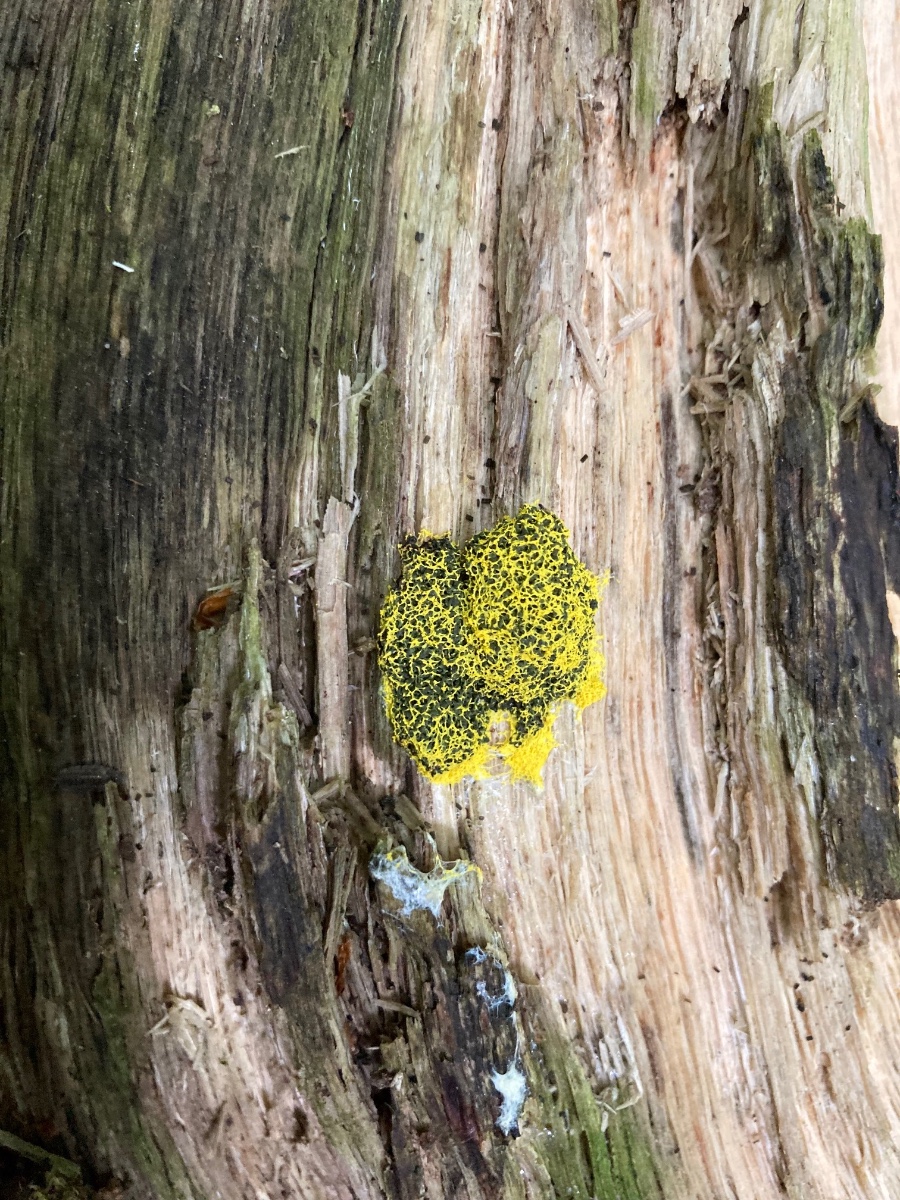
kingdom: Protozoa
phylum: Mycetozoa
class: Myxomycetes
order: Physarales
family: Physaraceae
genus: Fuligo
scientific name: Fuligo septica
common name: gul troldsmør
